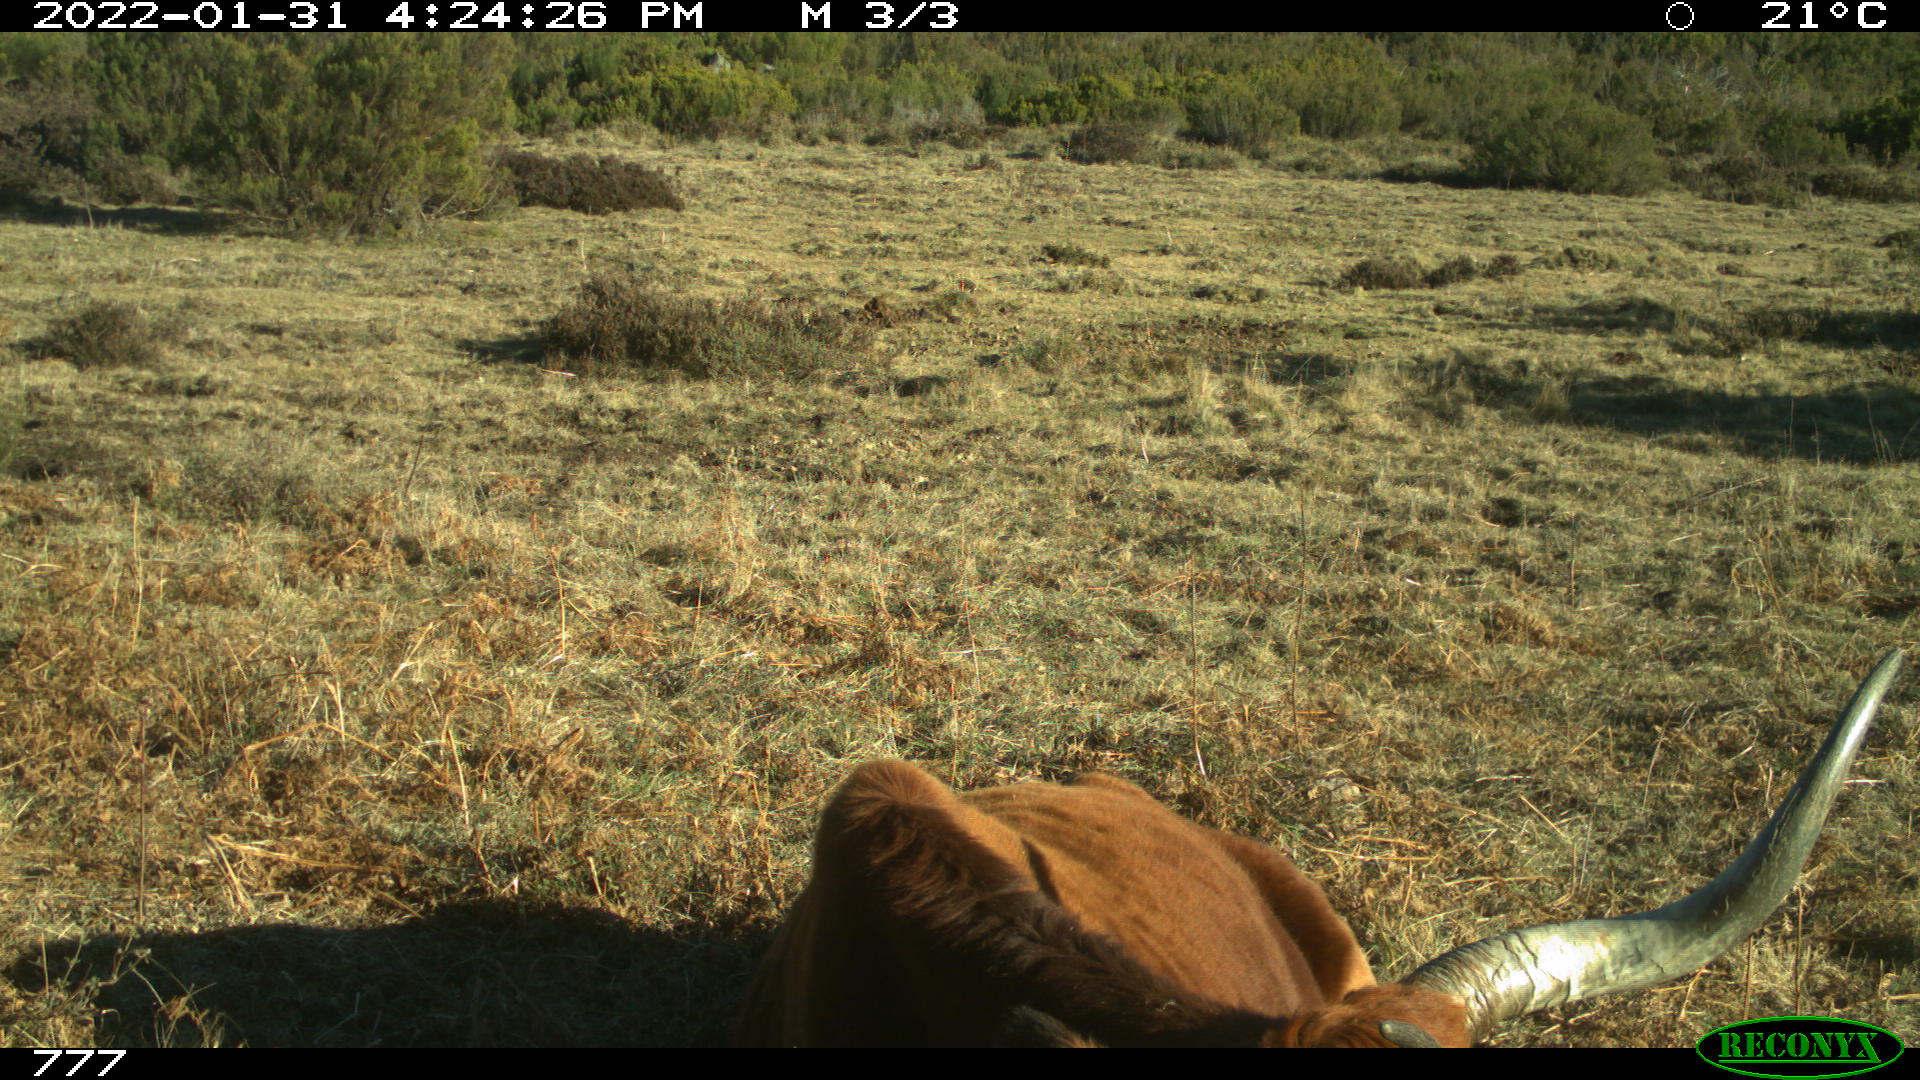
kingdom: Animalia
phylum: Chordata
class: Mammalia
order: Artiodactyla
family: Bovidae
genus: Bos
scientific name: Bos taurus
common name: Domesticated cattle
